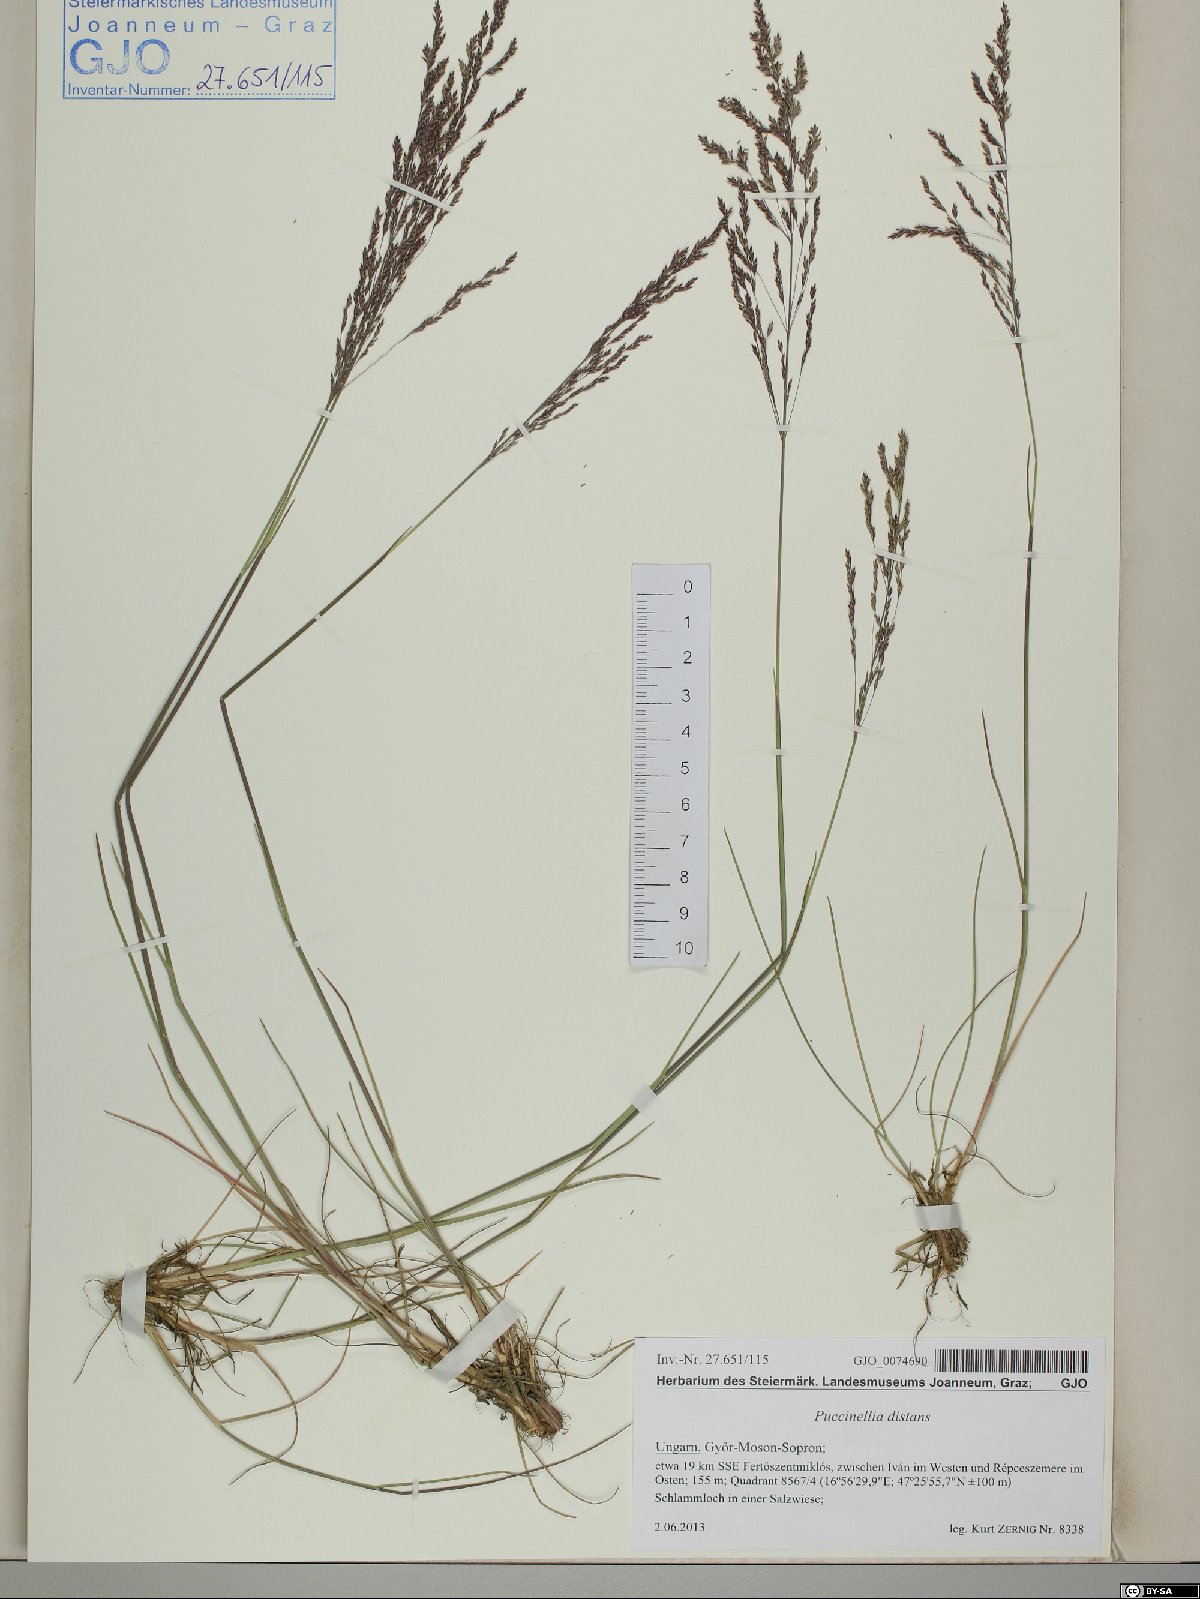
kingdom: Plantae
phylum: Tracheophyta
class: Liliopsida
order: Poales
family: Poaceae
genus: Puccinellia
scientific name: Puccinellia distans
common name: Weeping alkaligrass
